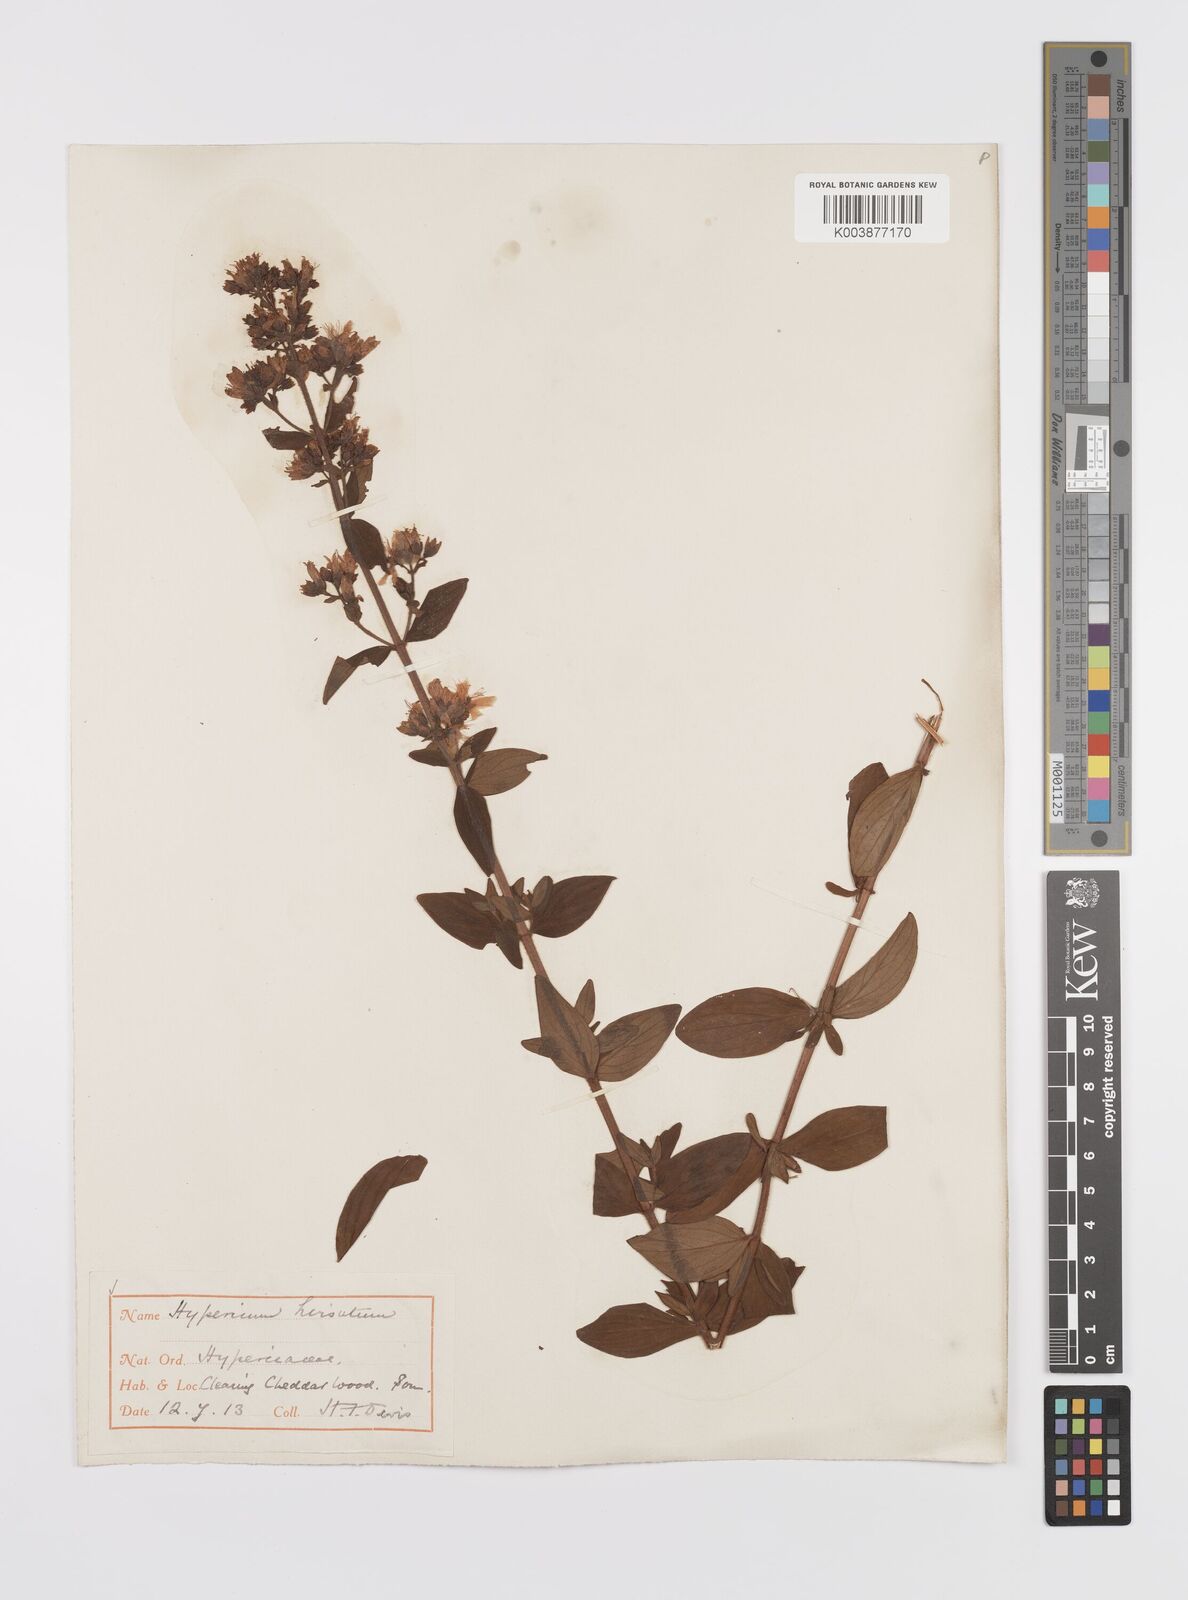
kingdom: Plantae
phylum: Tracheophyta
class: Magnoliopsida
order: Malpighiales
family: Hypericaceae
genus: Hypericum
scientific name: Hypericum hirsutum
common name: Hairy st. john's-wort
